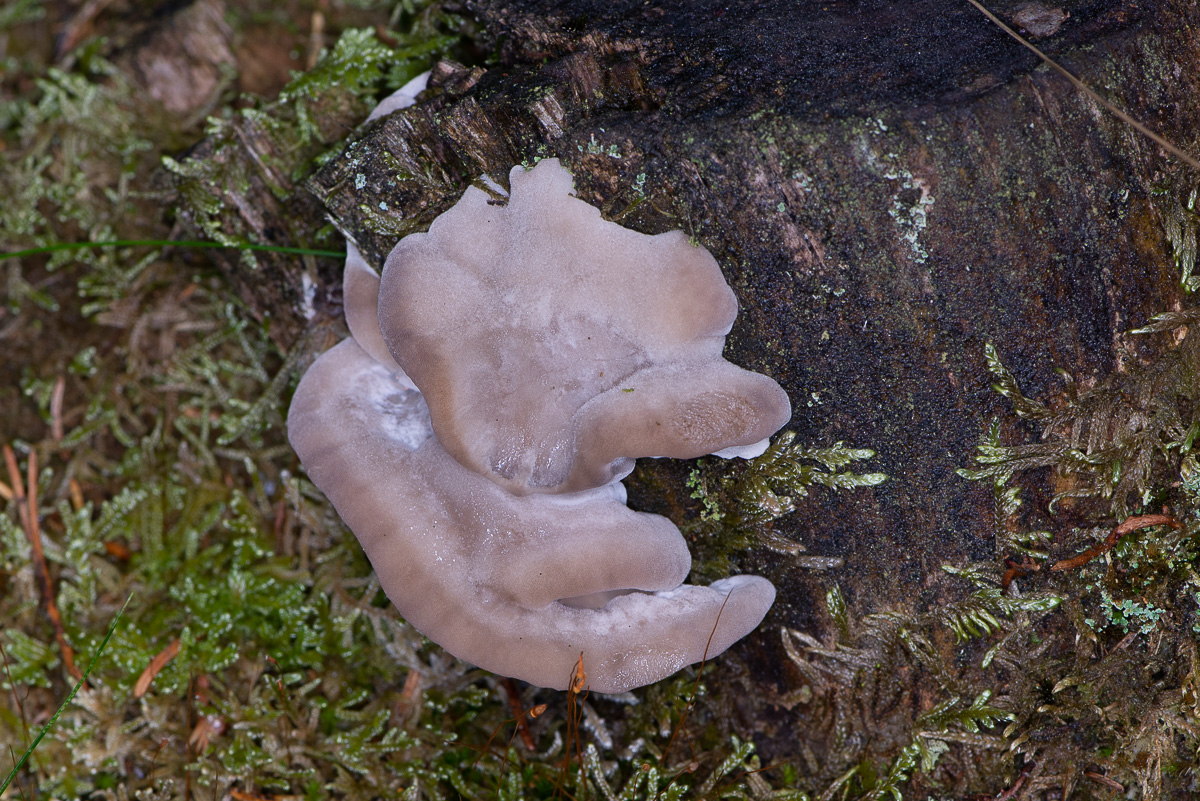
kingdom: Fungi
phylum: Basidiomycota
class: Agaricomycetes
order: Polyporales
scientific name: Polyporales
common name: poresvampordenen
